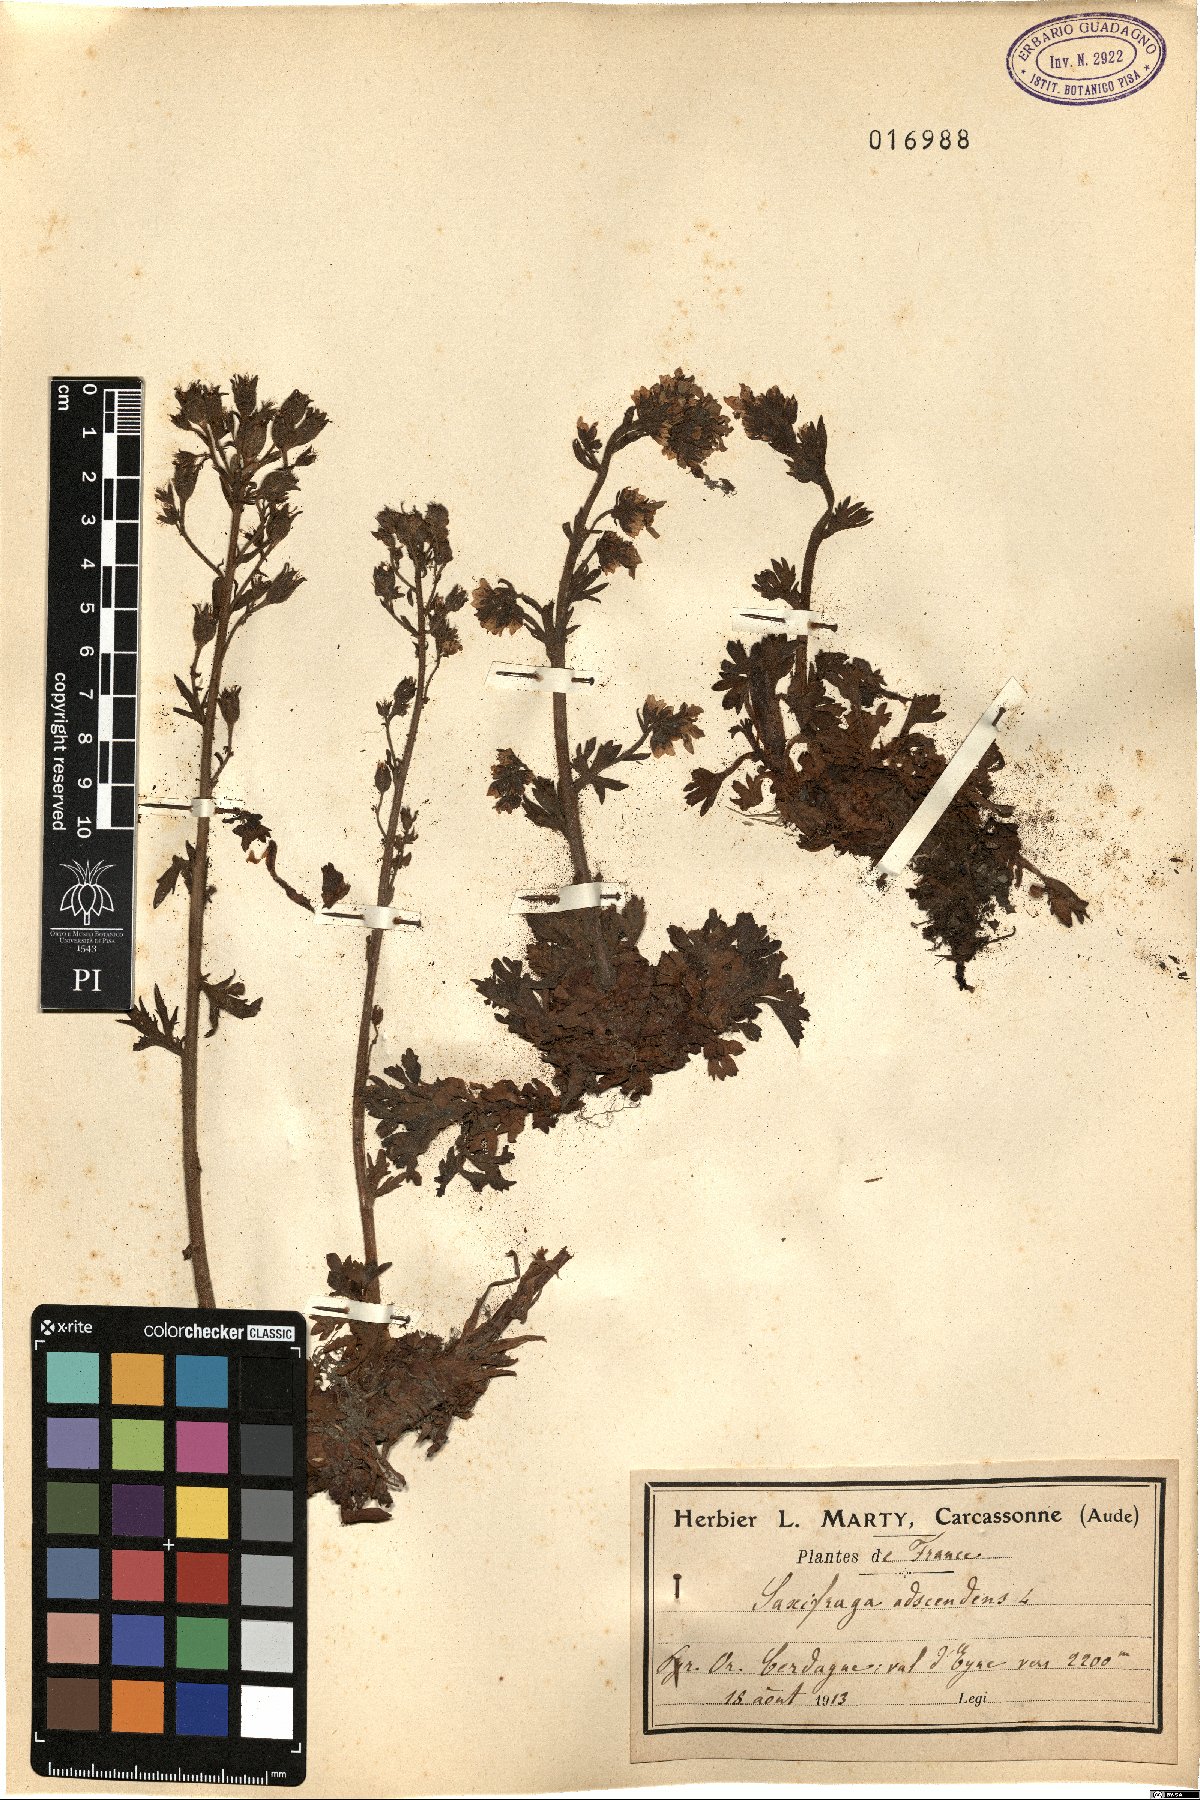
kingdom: Plantae
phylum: Tracheophyta
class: Magnoliopsida
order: Saxifragales
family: Saxifragaceae
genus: Saxifraga
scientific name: Saxifraga adscendens
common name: Ascending saxifrage
